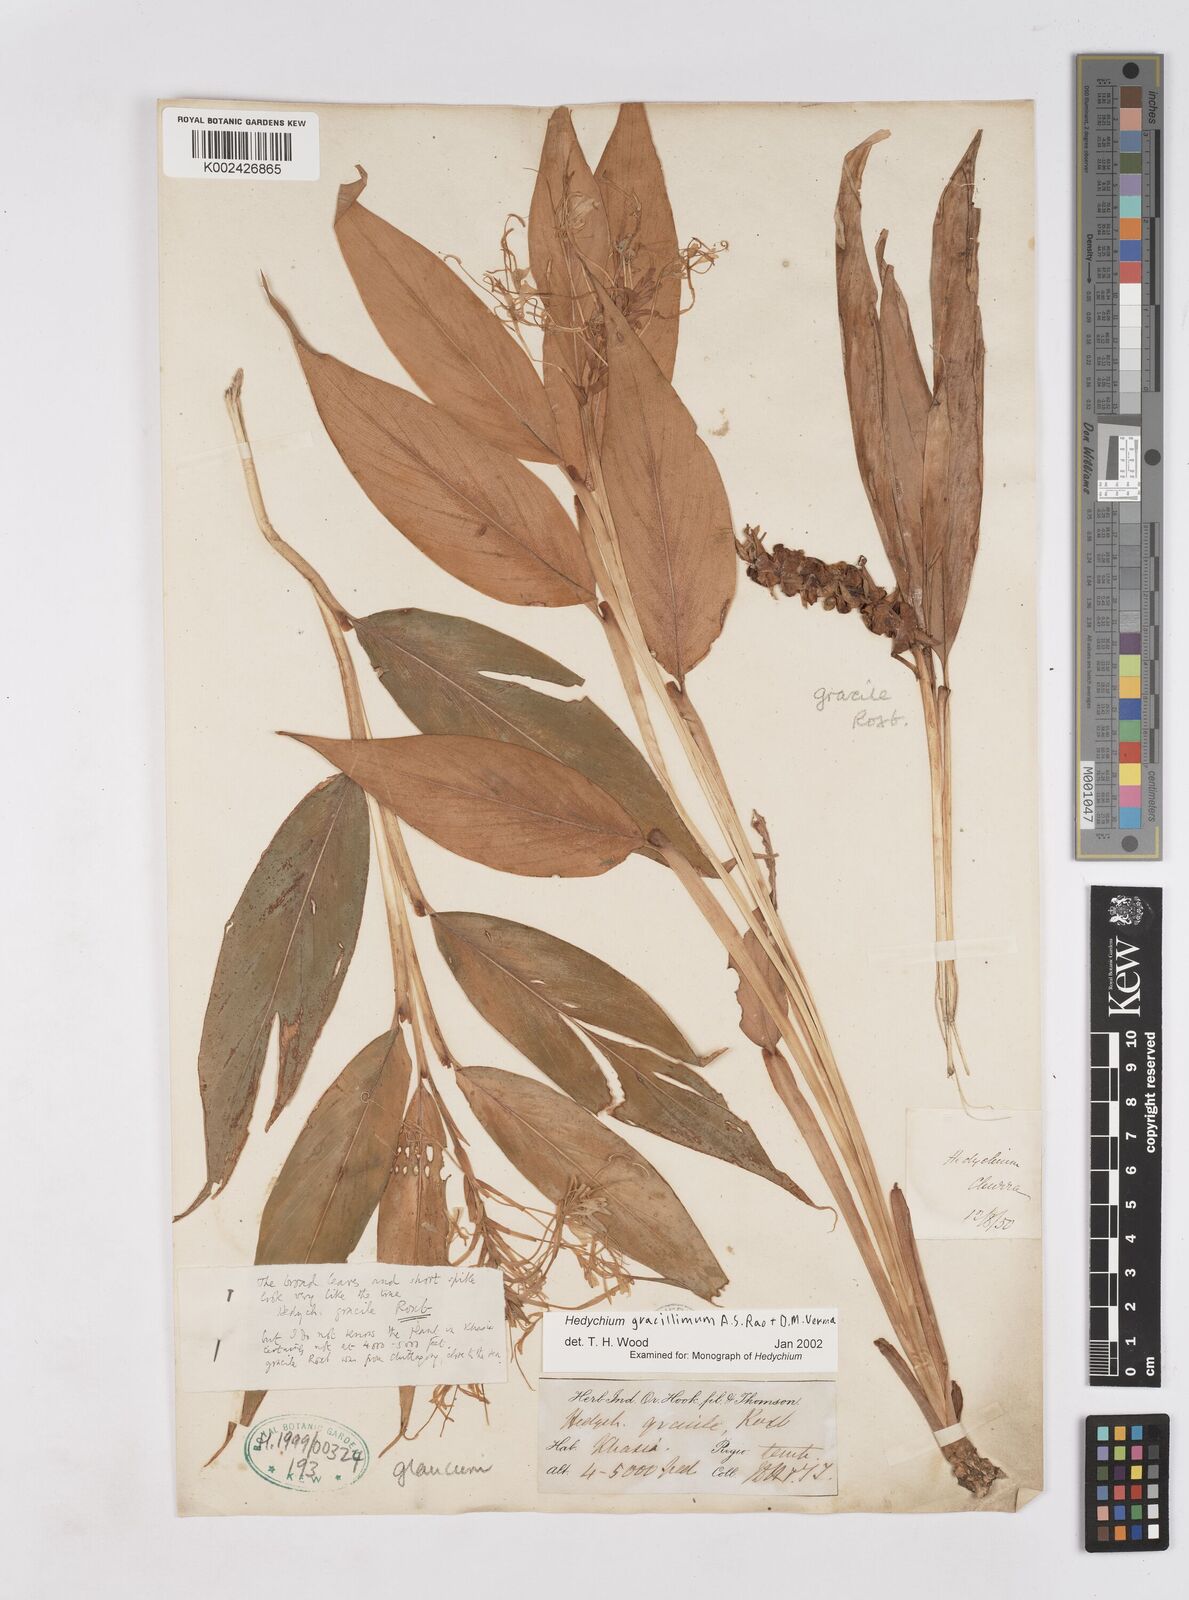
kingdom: Plantae
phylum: Tracheophyta
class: Liliopsida
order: Zingiberales
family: Zingiberaceae
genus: Hedychium
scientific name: Hedychium gracillimum
